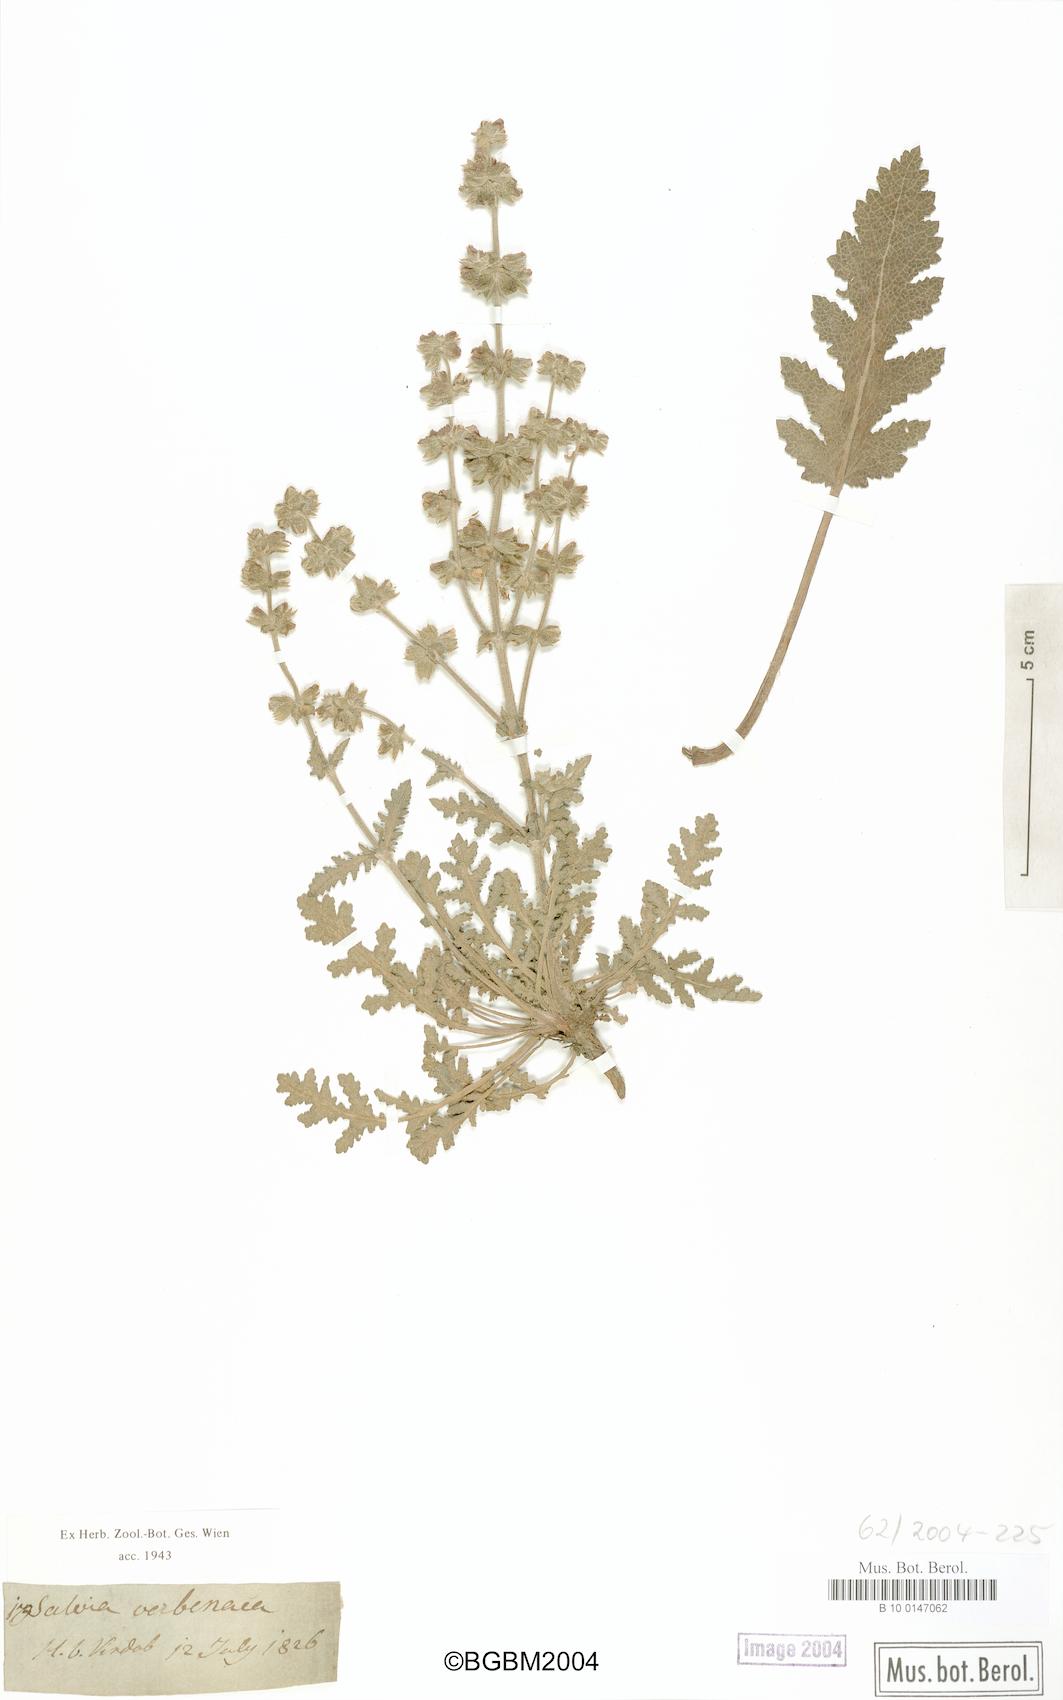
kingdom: Plantae
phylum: Tracheophyta
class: Magnoliopsida
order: Lamiales
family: Lamiaceae
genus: Salvia
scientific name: Salvia verbenaca
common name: Wild clary
